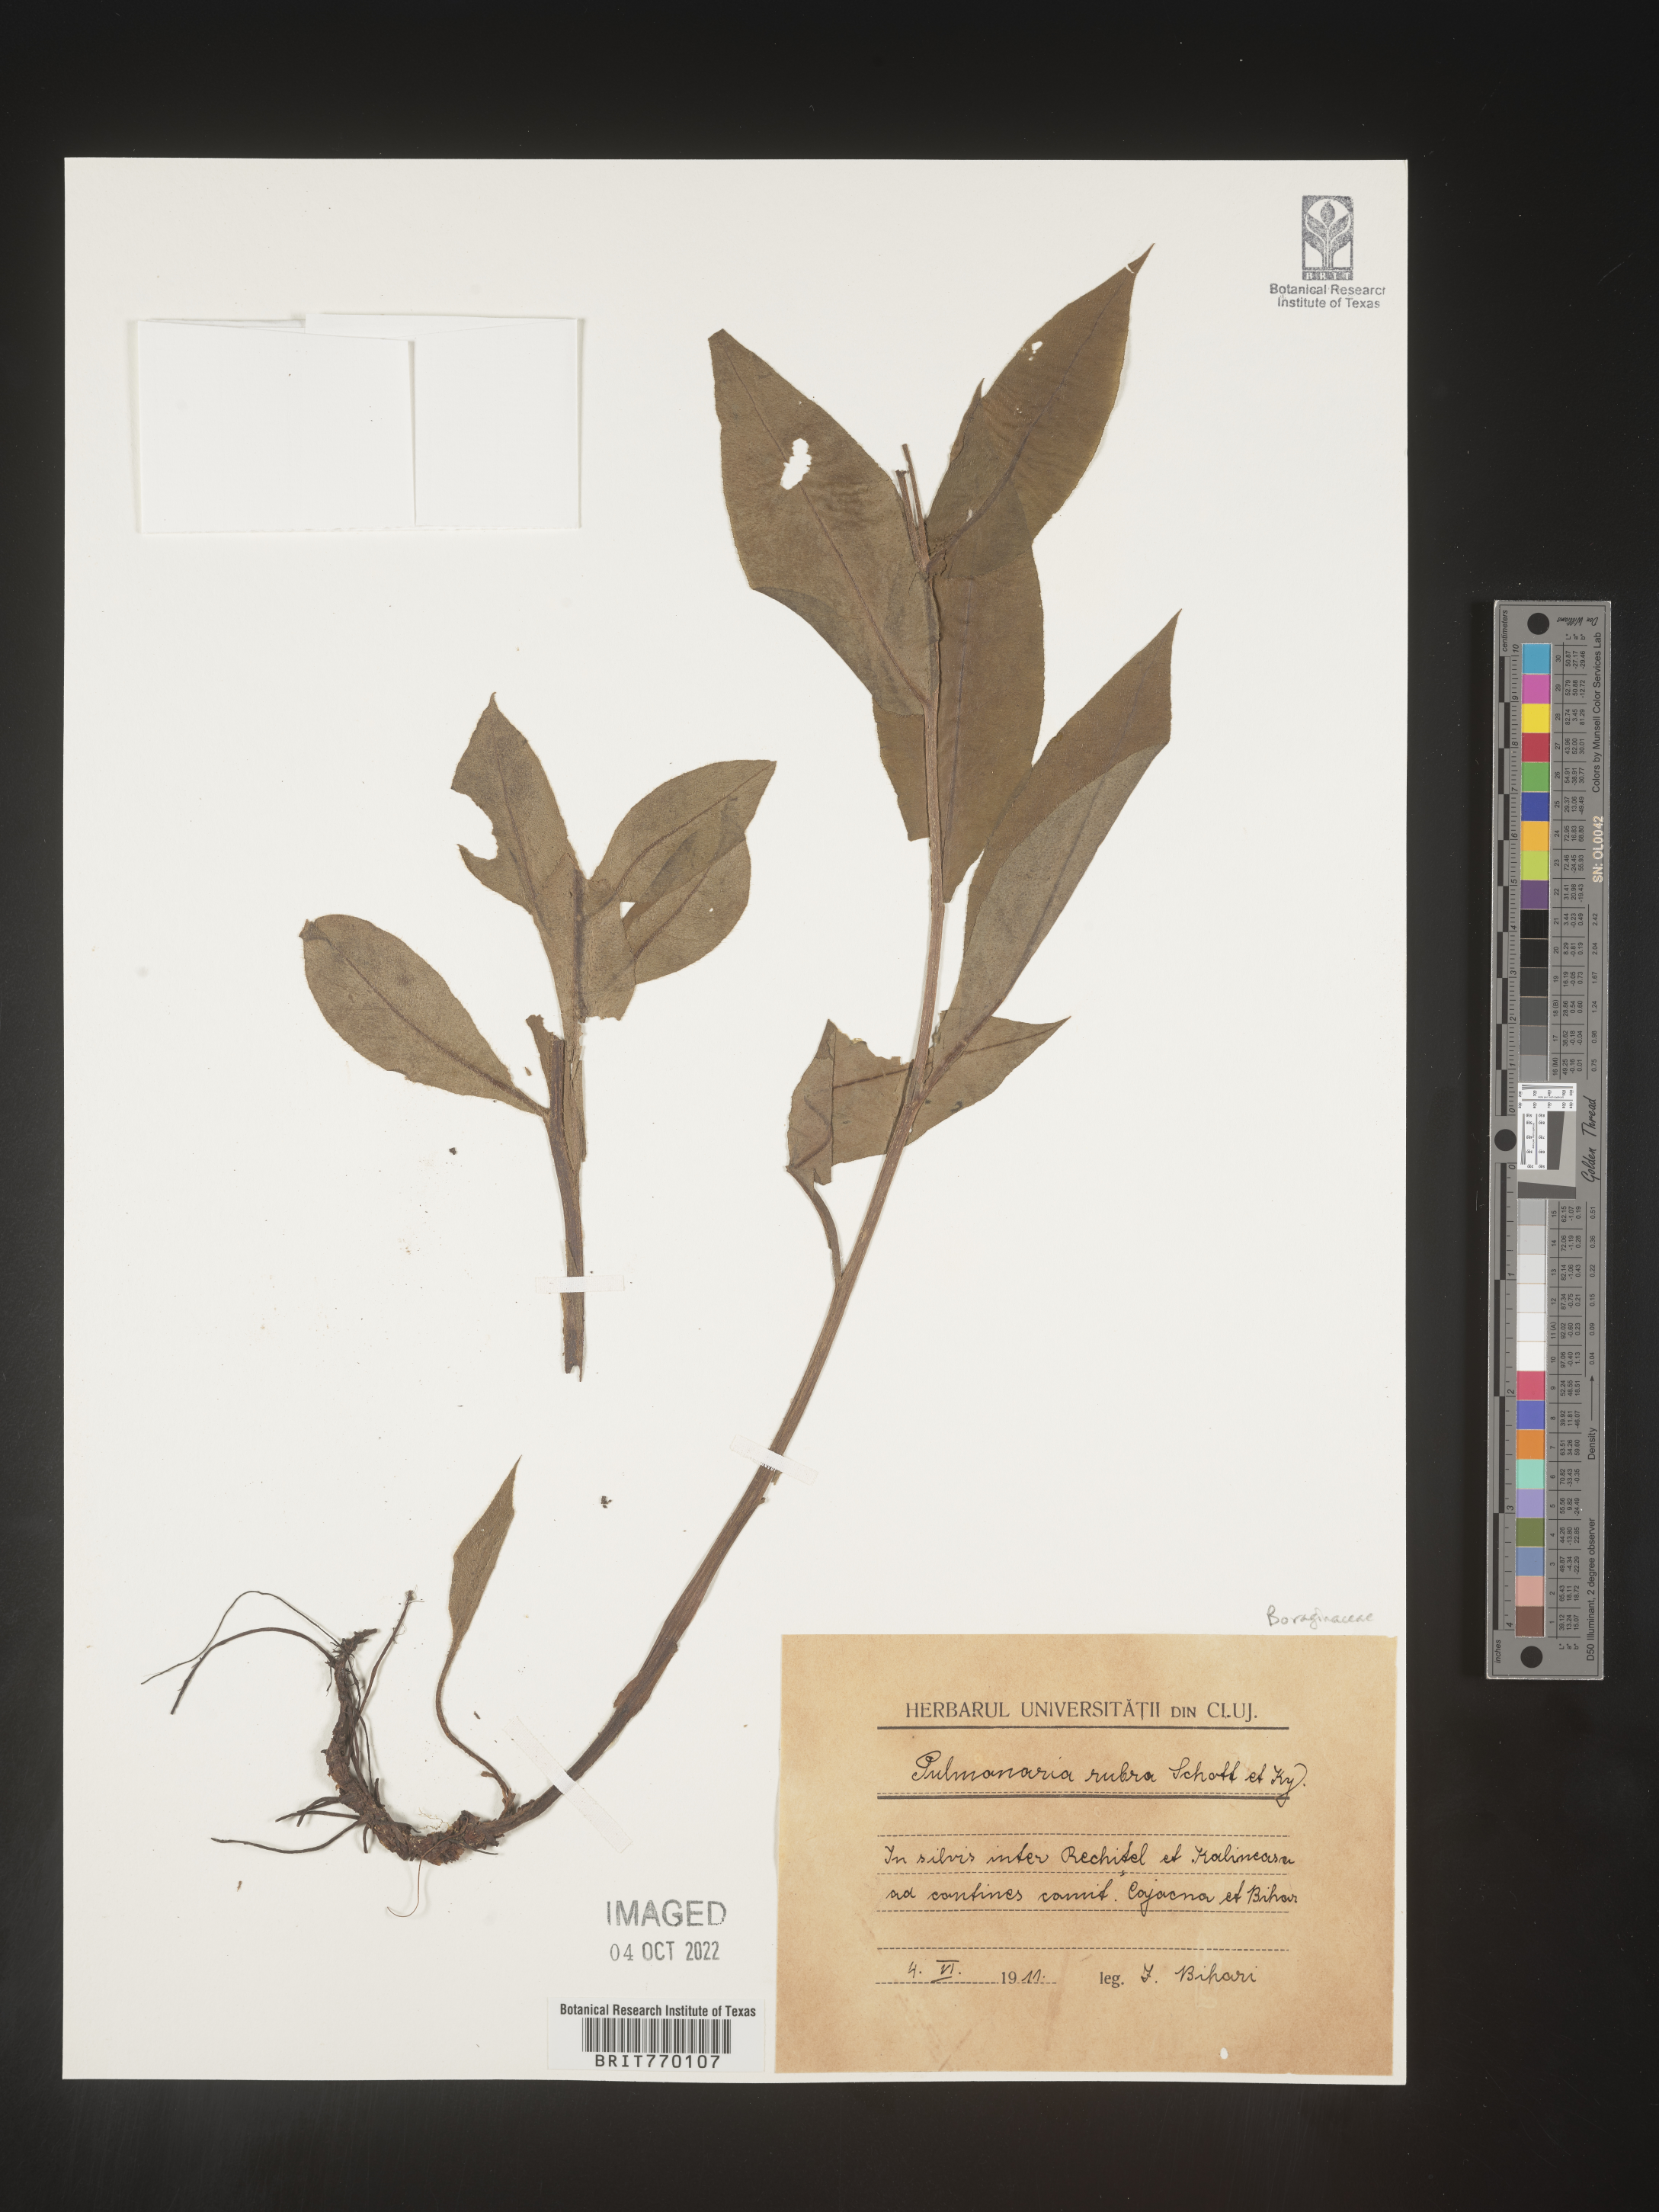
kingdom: Plantae
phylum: Tracheophyta
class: Magnoliopsida
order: Boraginales
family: Boraginaceae
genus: Pulmonaria
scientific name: Pulmonaria
